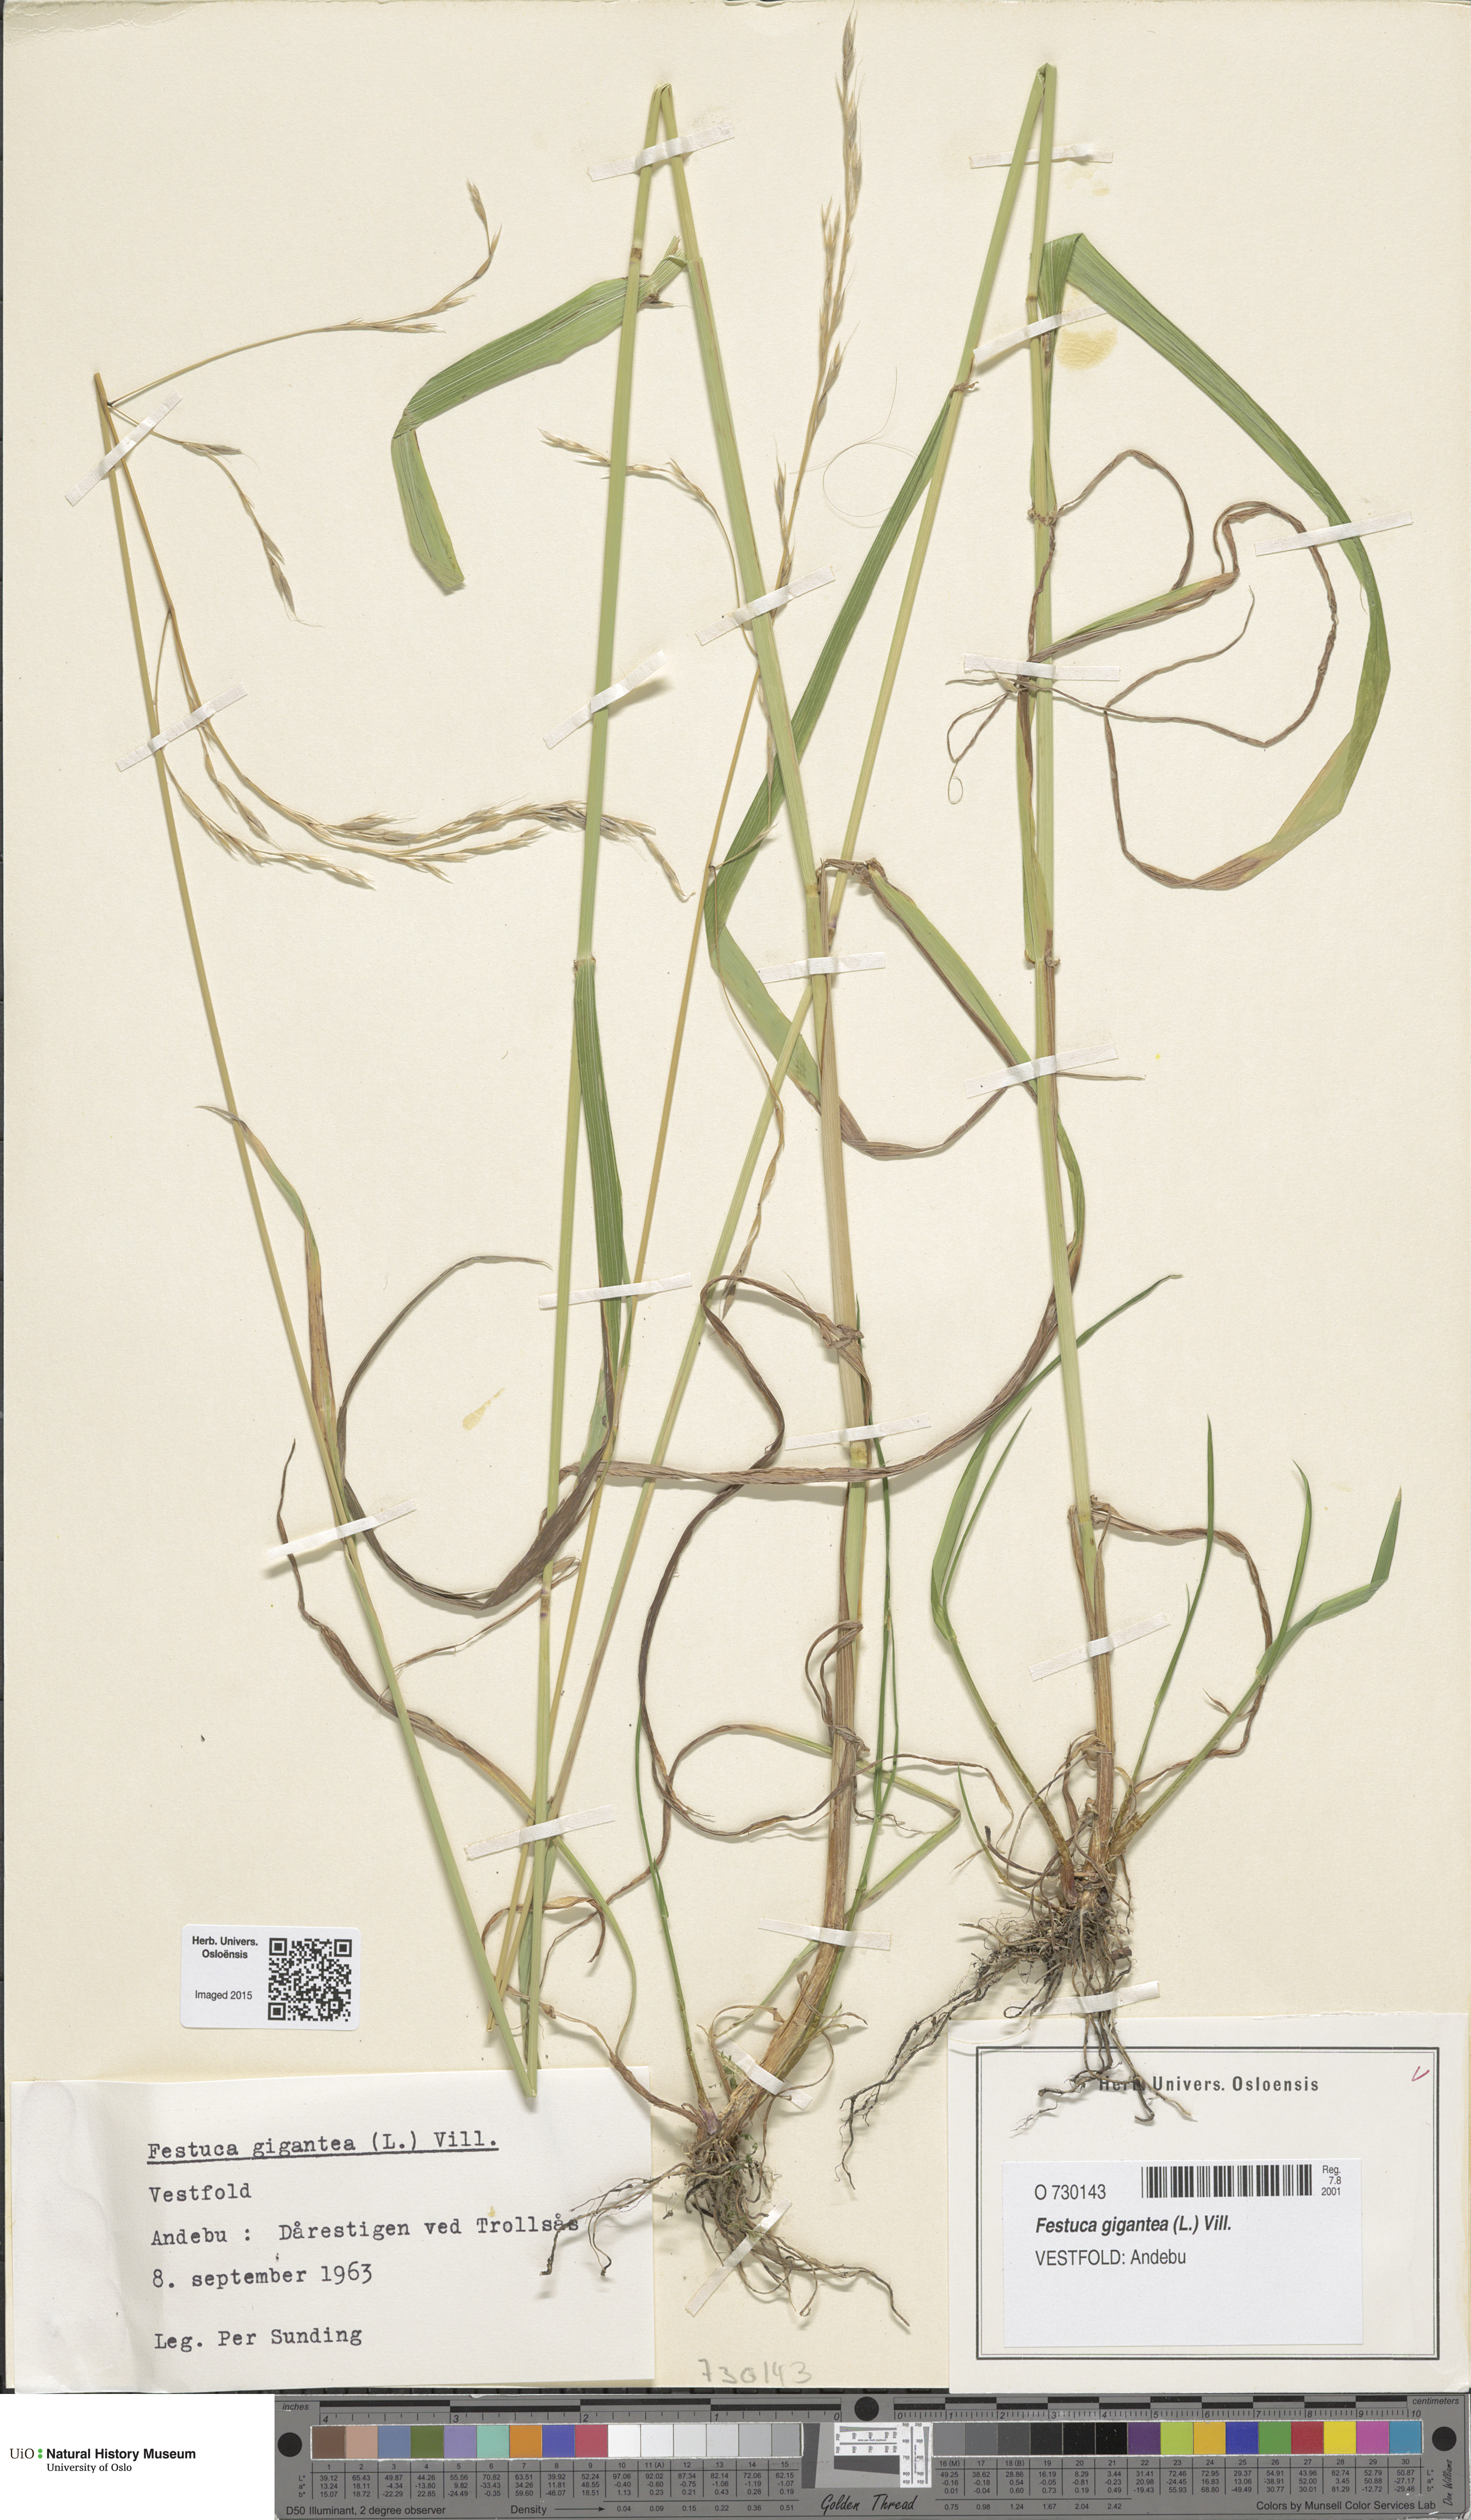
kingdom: Plantae
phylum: Tracheophyta
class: Liliopsida
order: Poales
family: Poaceae
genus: Lolium
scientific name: Lolium giganteum
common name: Giant fescue
